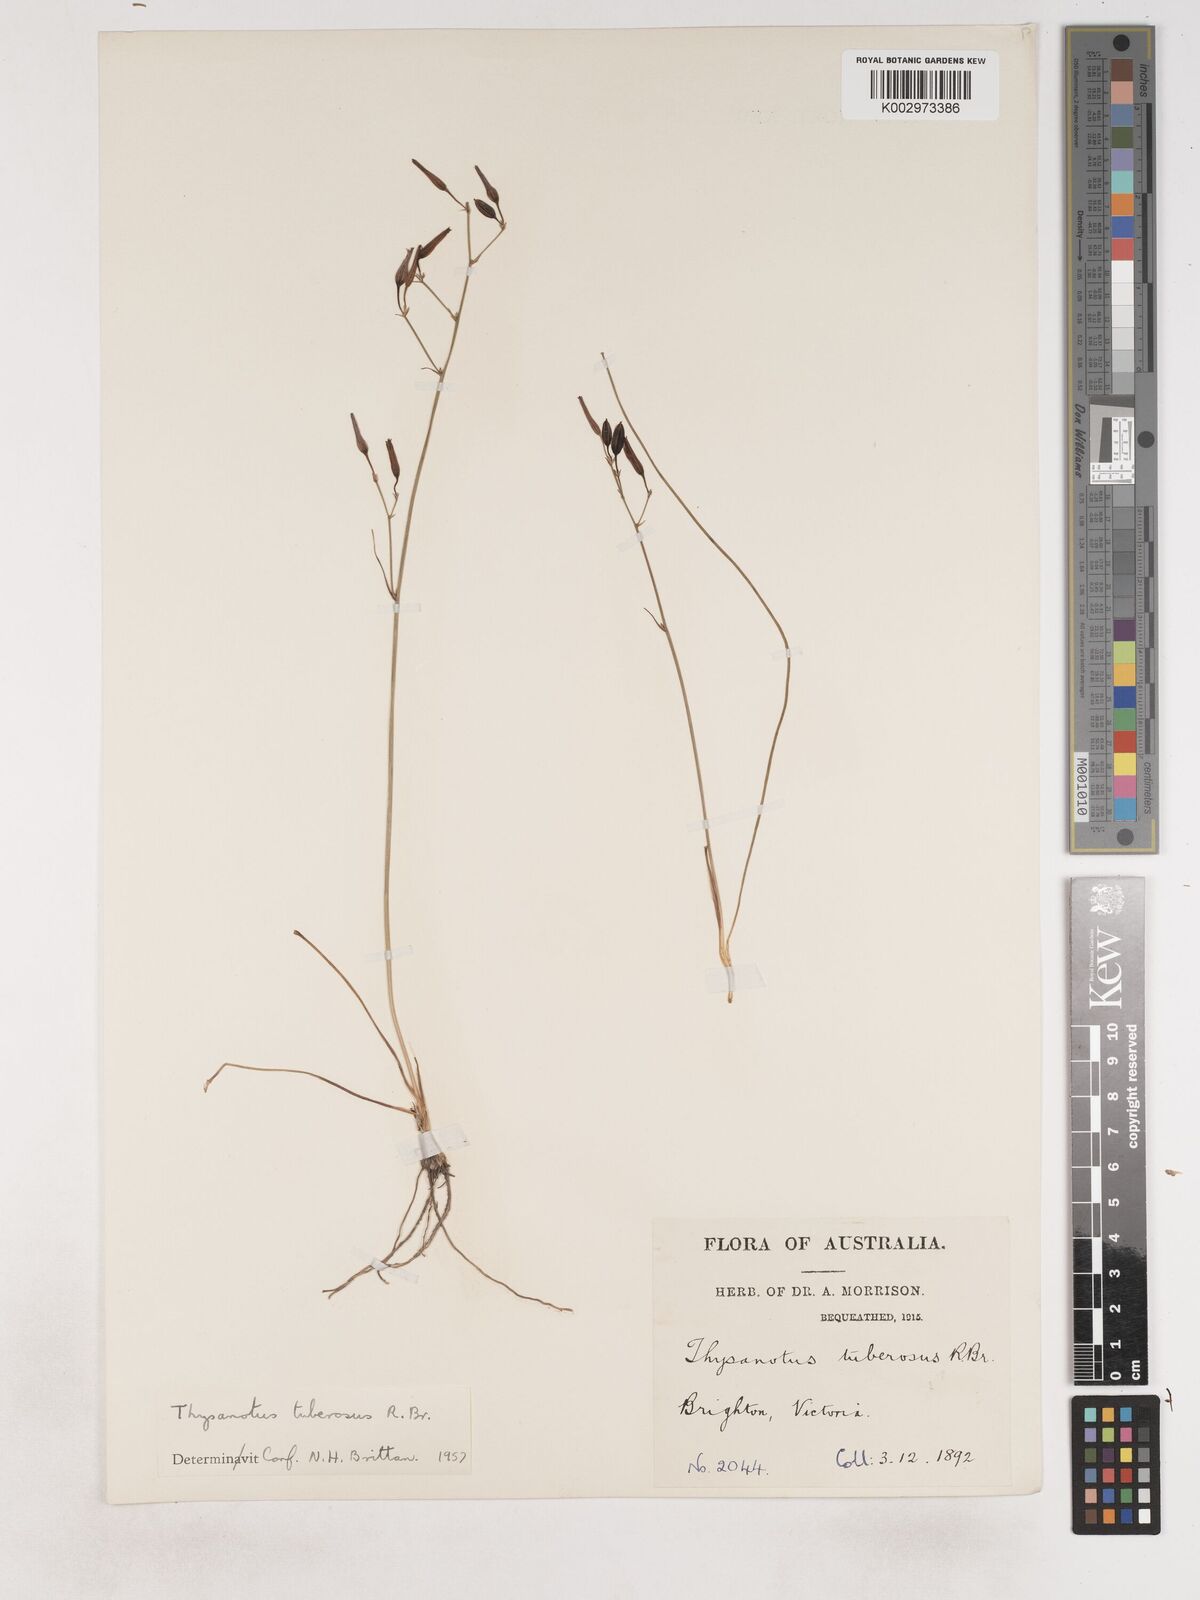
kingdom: Plantae
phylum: Tracheophyta
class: Liliopsida
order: Asparagales
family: Asparagaceae
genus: Thysanotus
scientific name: Thysanotus tuberosus
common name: Common fringed-lily
